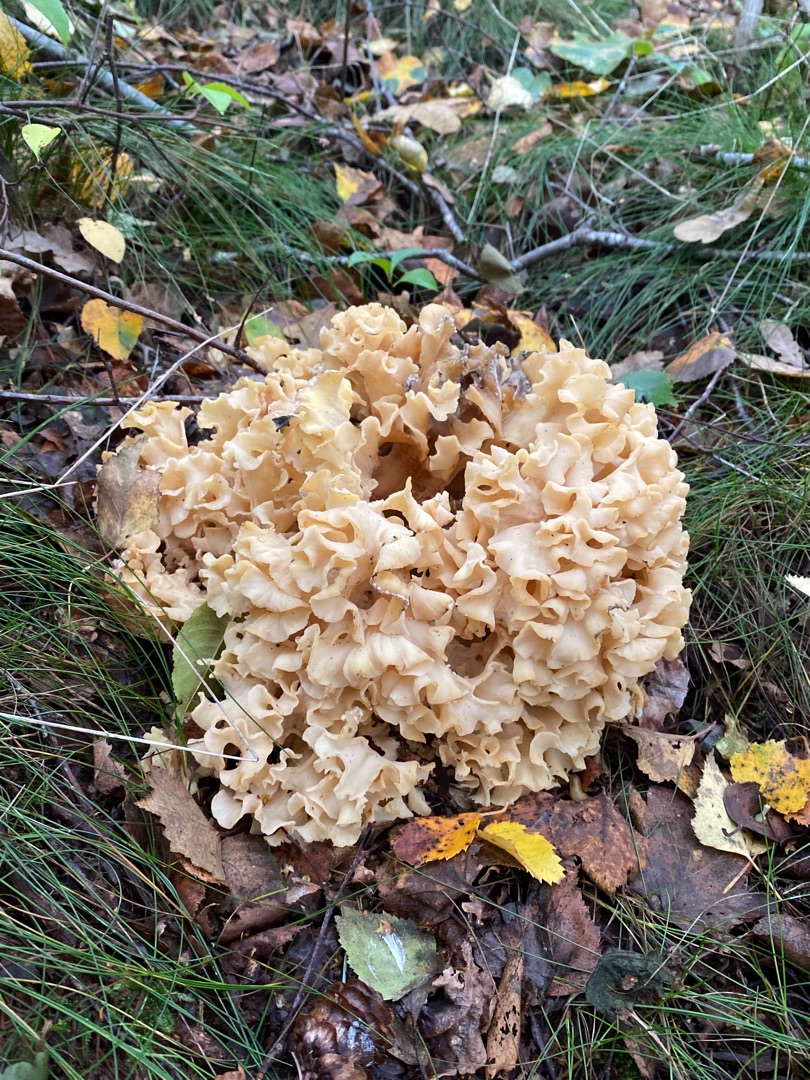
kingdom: Fungi
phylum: Basidiomycota
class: Agaricomycetes
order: Polyporales
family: Sparassidaceae
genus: Sparassis
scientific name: Sparassis crispa
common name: Kruset blomkålssvamp
